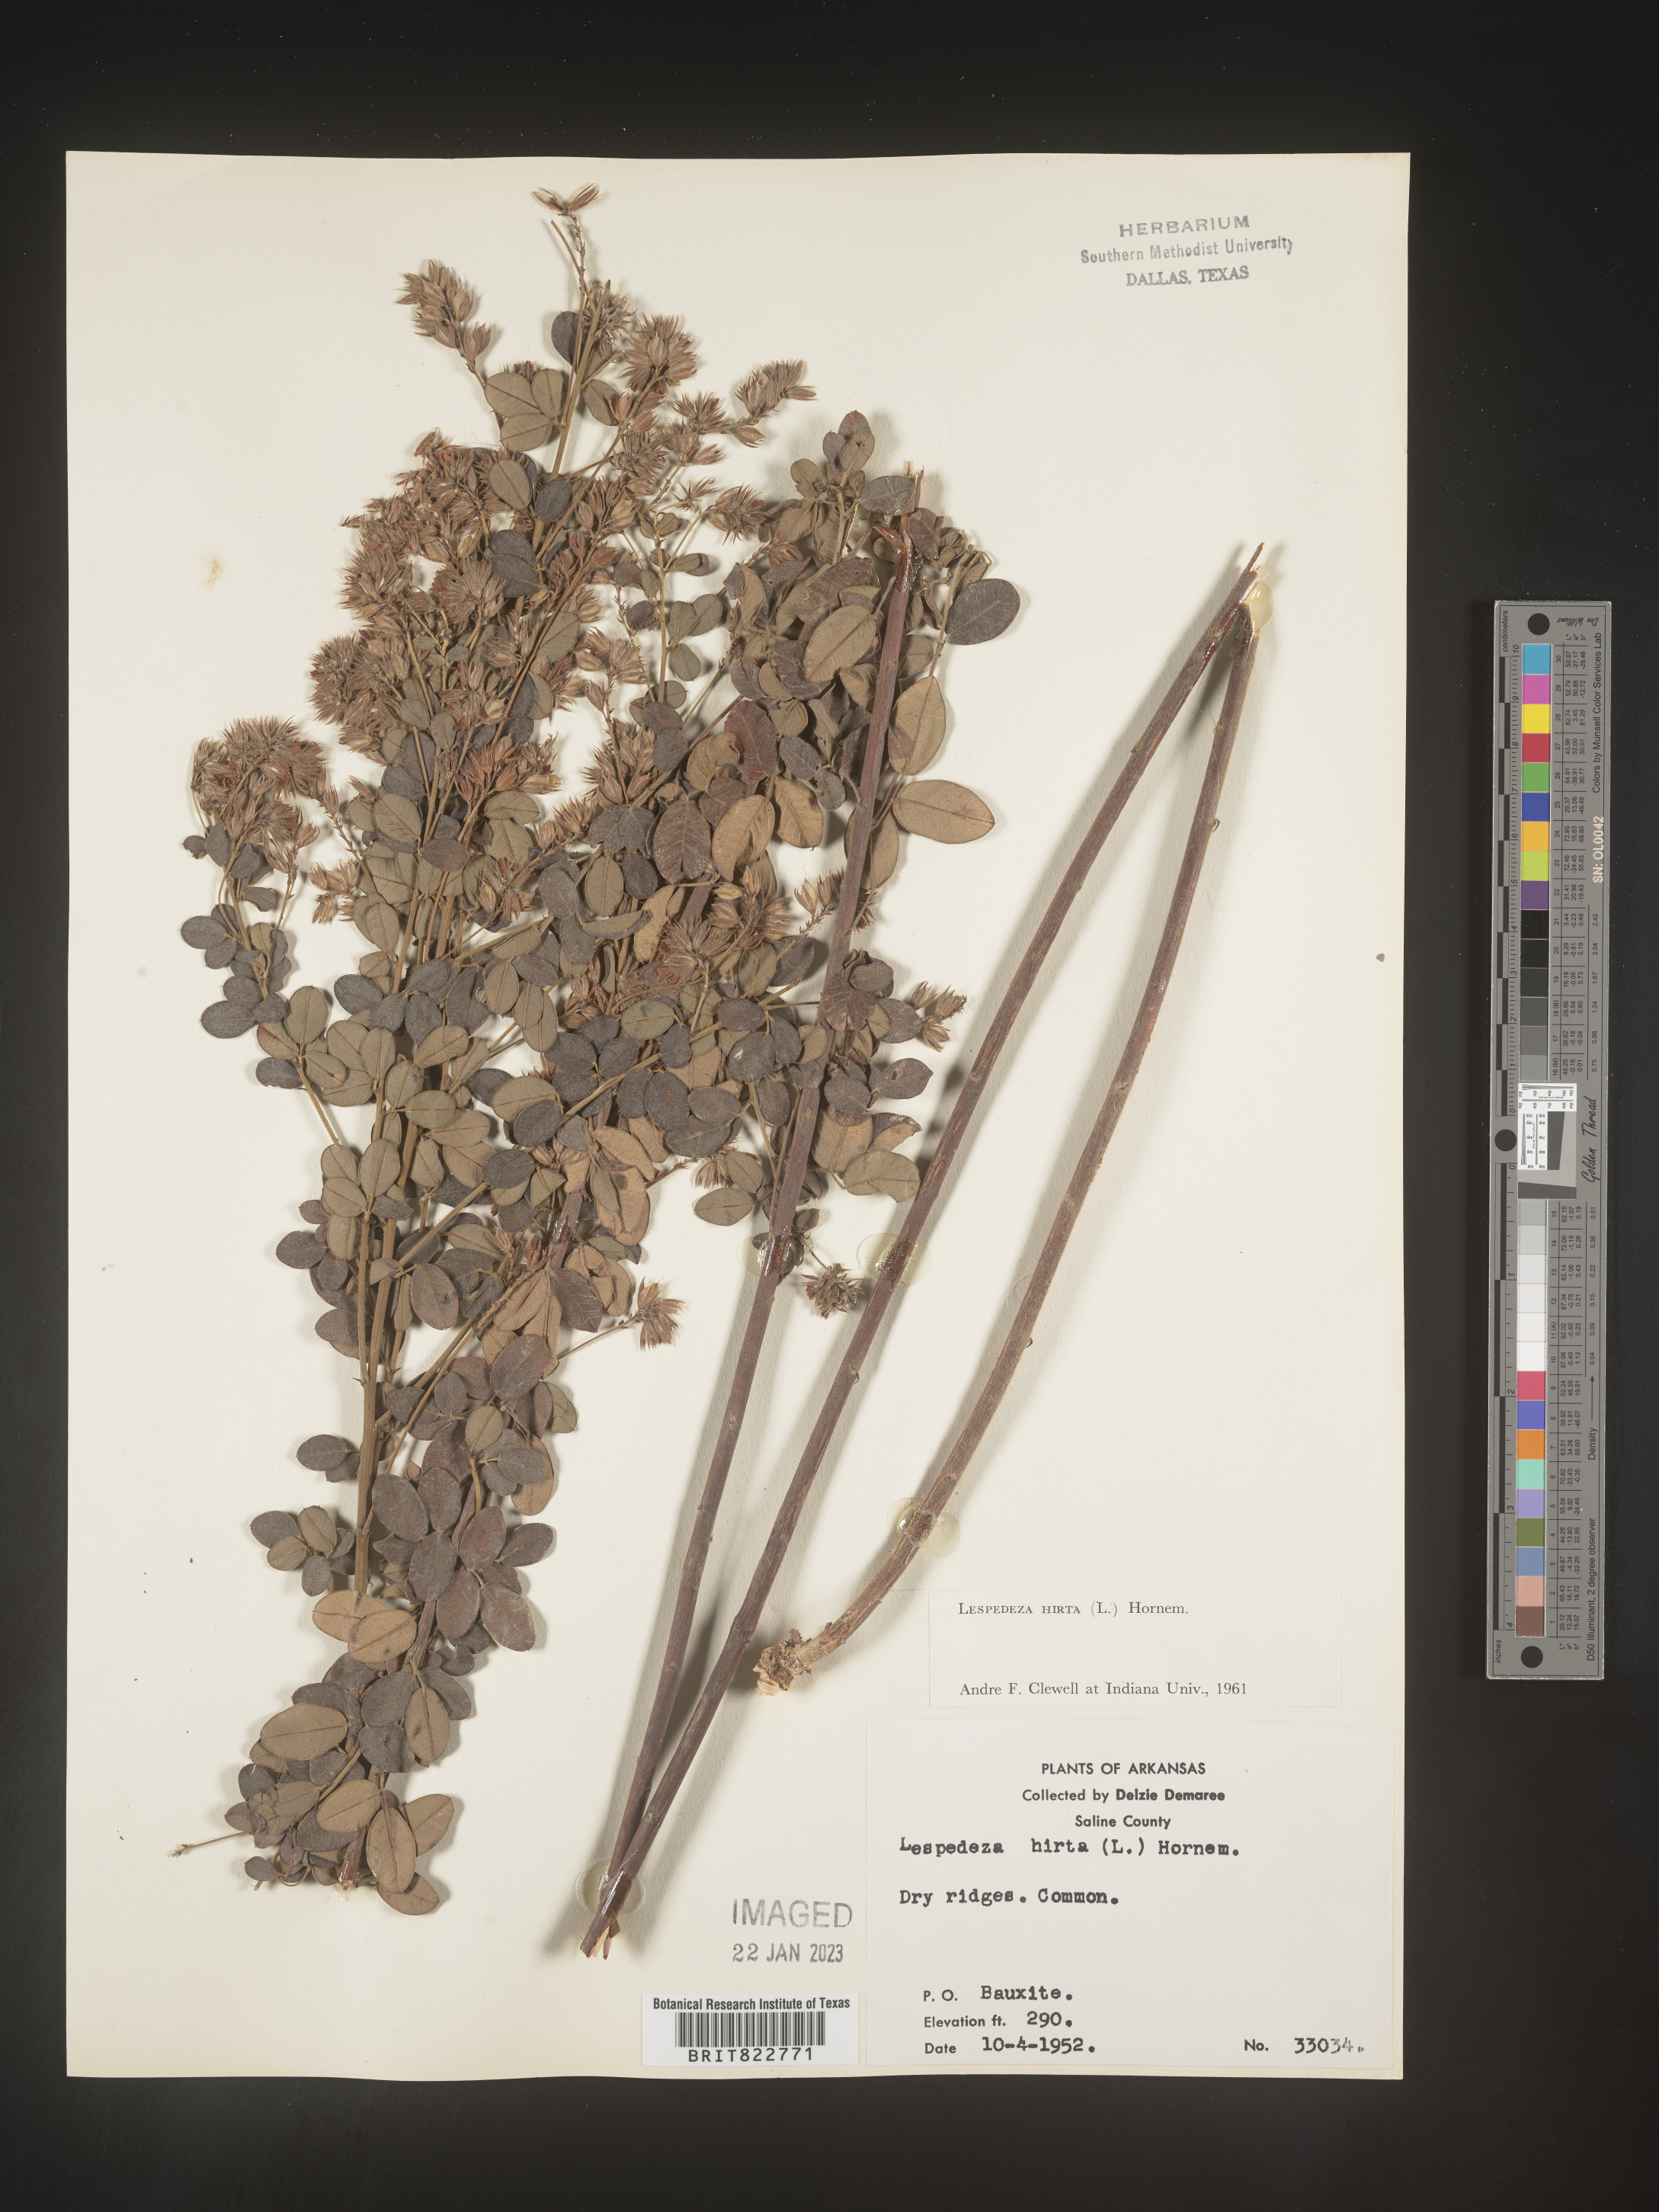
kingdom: Plantae
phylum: Tracheophyta
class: Magnoliopsida
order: Fabales
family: Fabaceae
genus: Lespedeza
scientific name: Lespedeza hirta
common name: Hairy lespedeza
